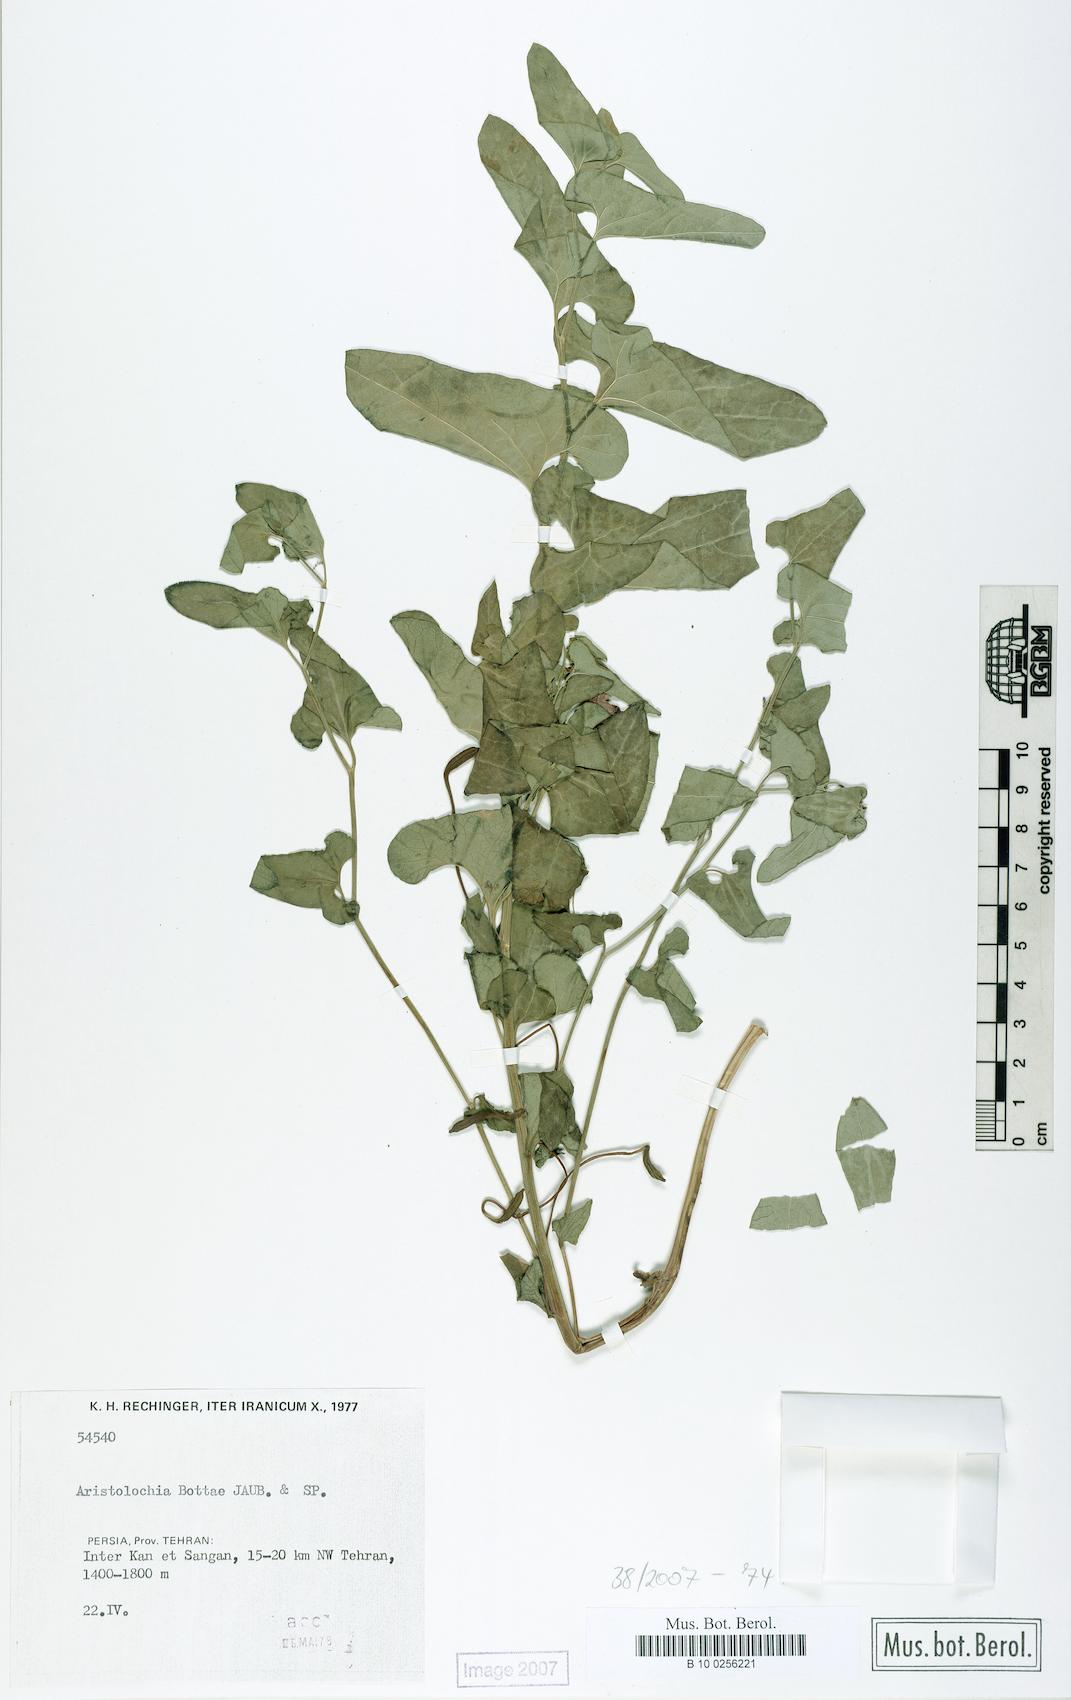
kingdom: Plantae
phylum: Tracheophyta
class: Magnoliopsida
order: Piperales
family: Aristolochiaceae
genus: Aristolochia
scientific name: Aristolochia bottae
